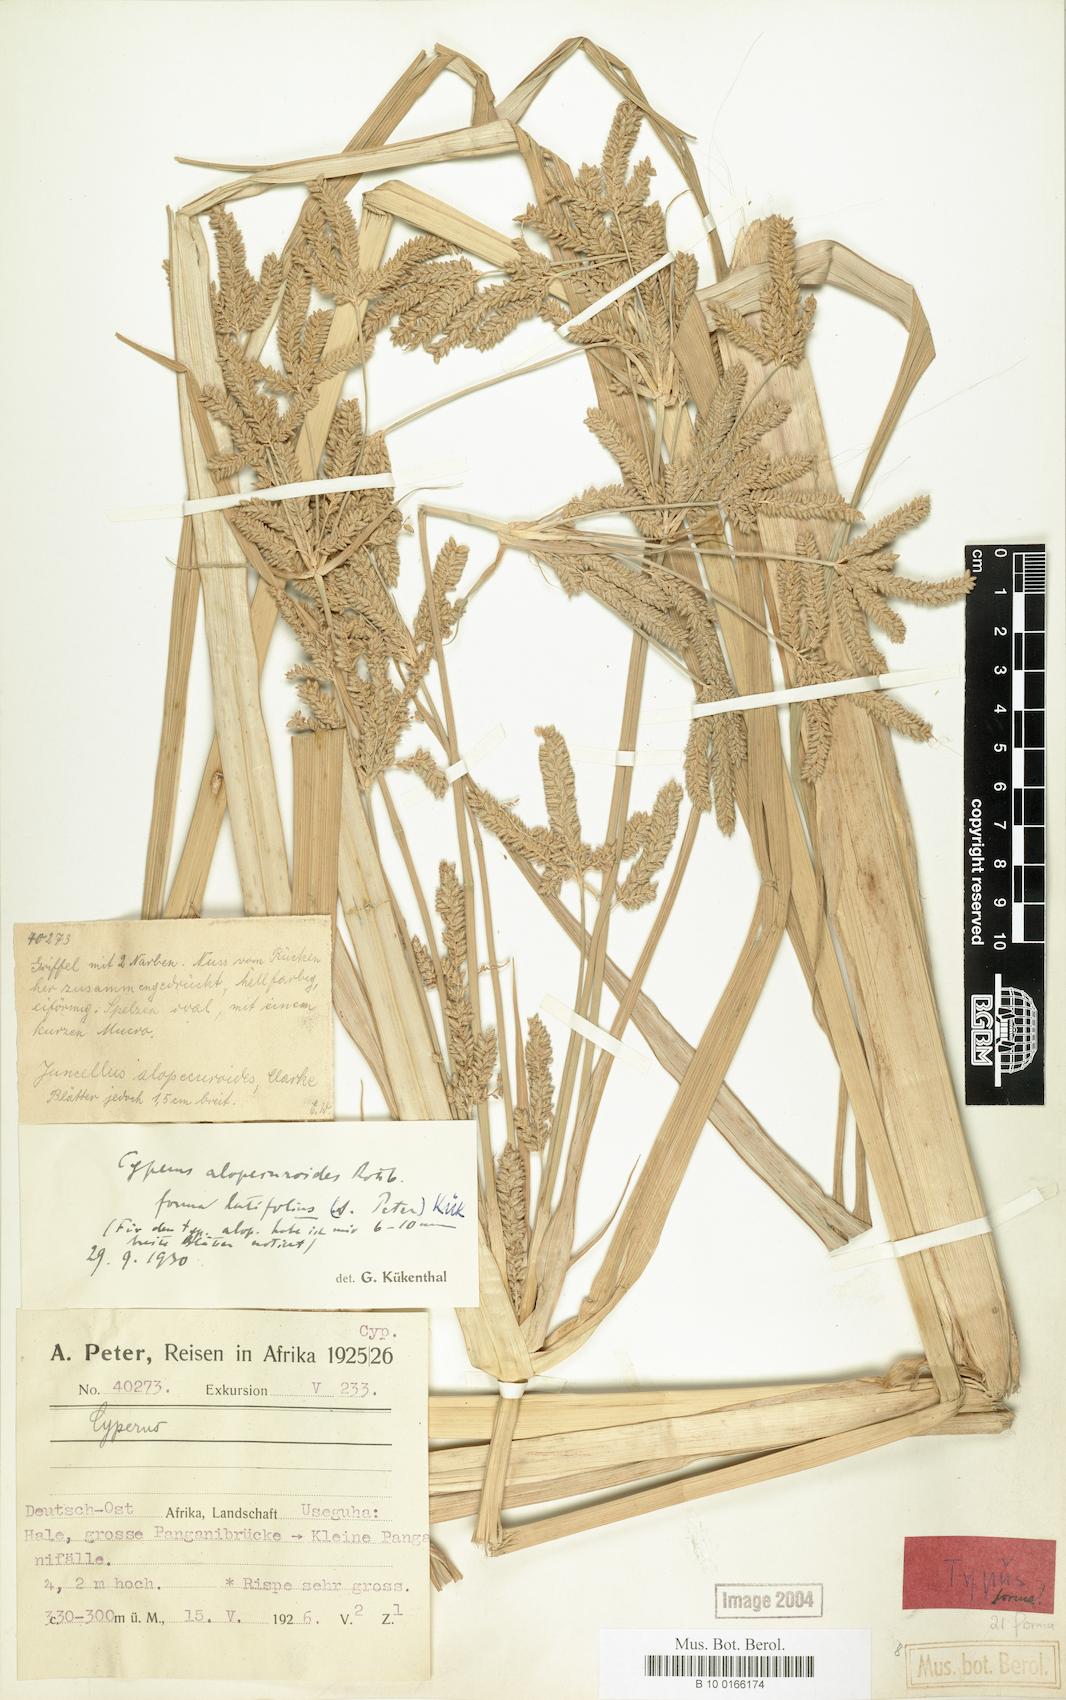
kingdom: Plantae
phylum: Tracheophyta
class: Liliopsida
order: Poales
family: Cyperaceae
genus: Cyperus
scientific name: Cyperus alopecuroides
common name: Foxtail flatsedge
